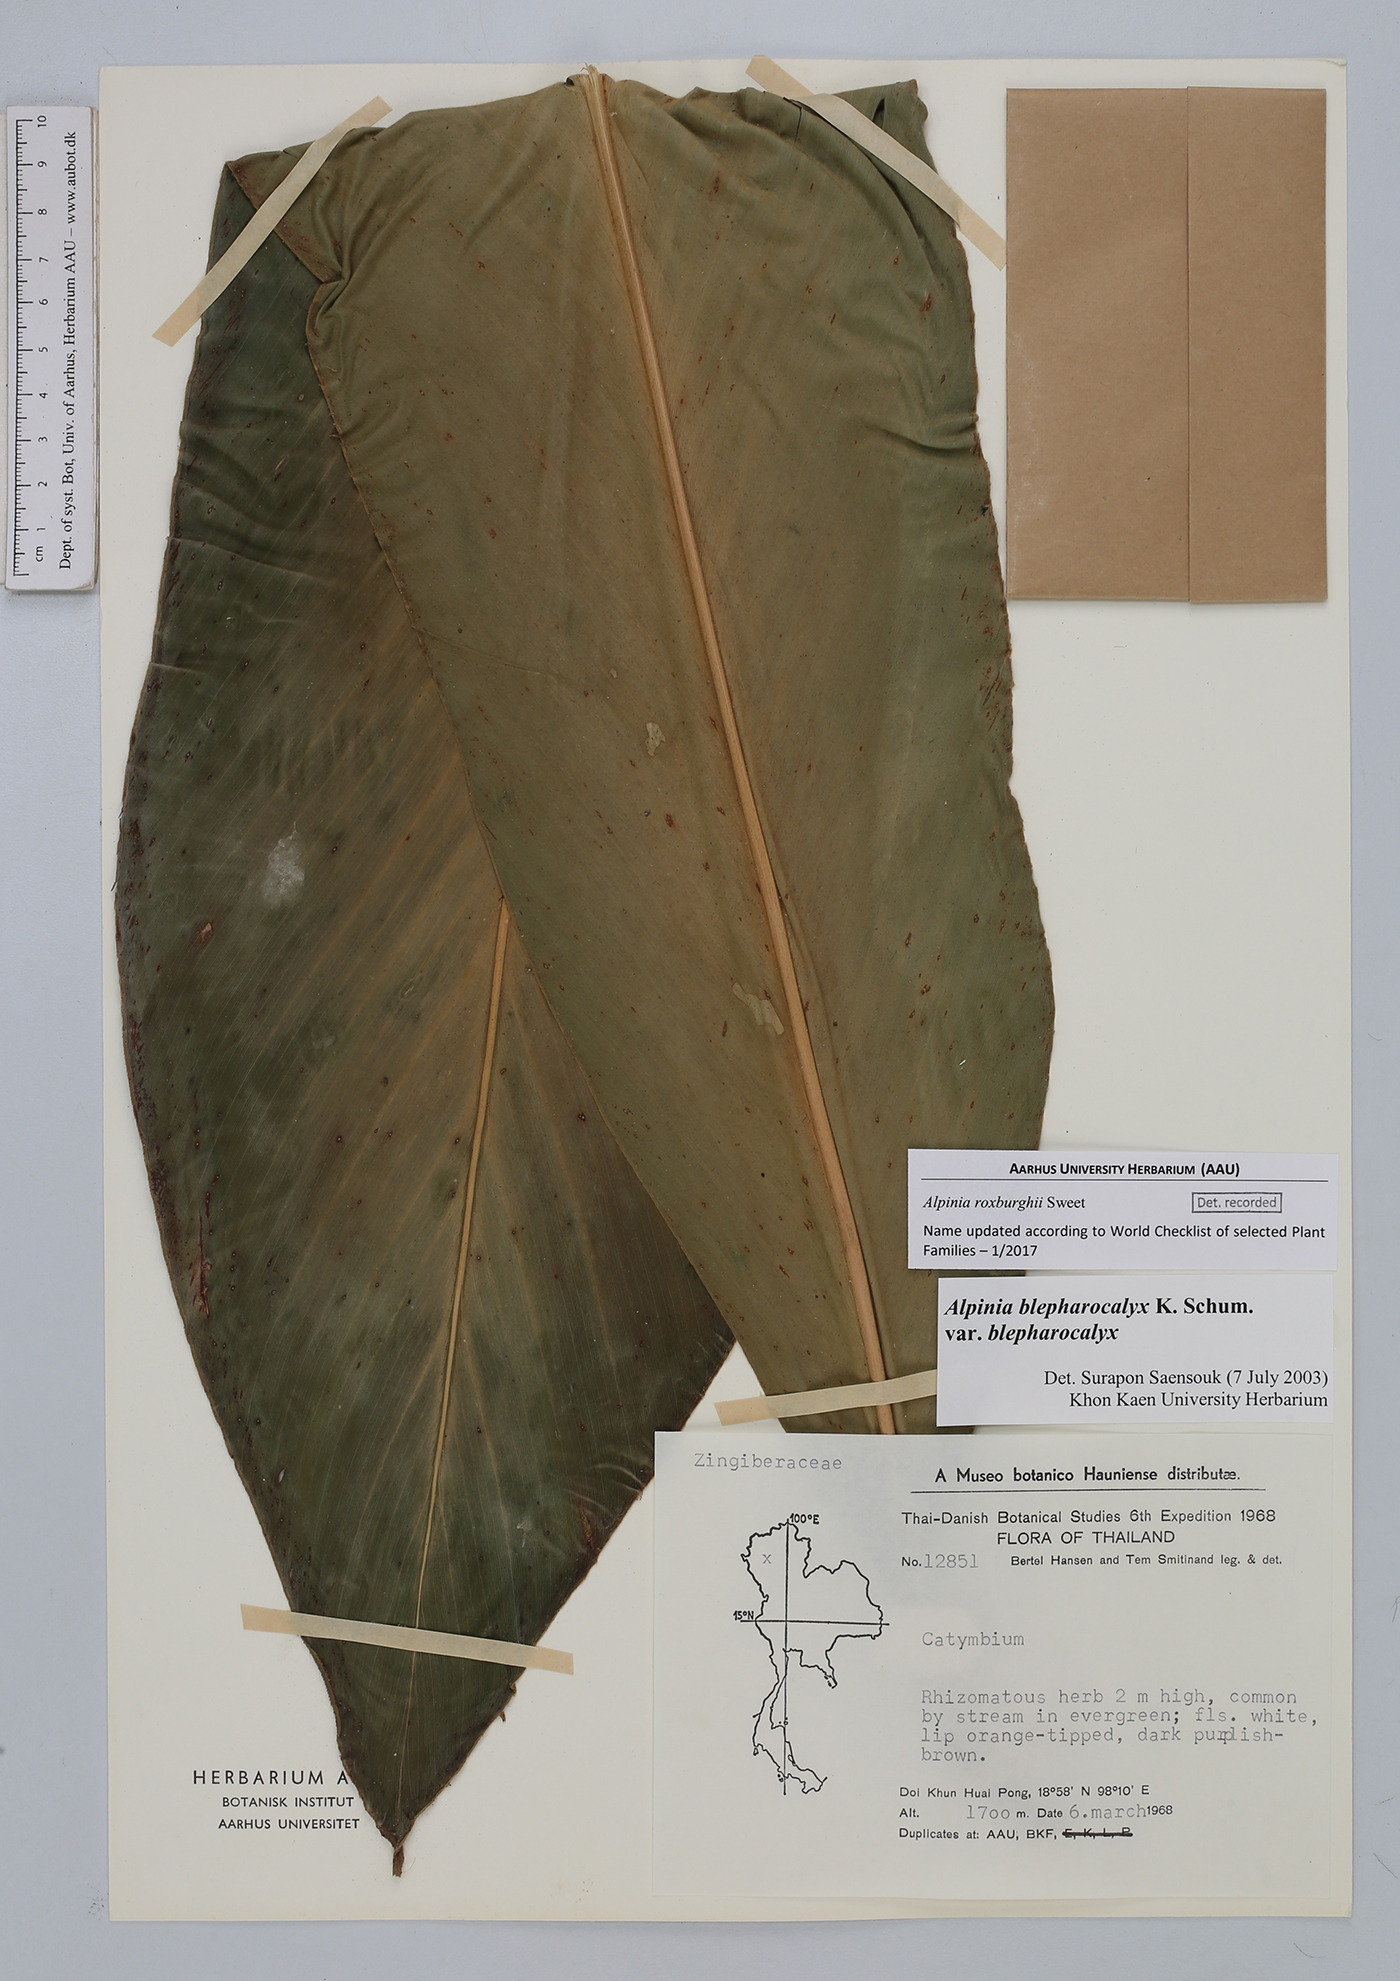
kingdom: Plantae
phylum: Tracheophyta
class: Liliopsida
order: Zingiberales
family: Zingiberaceae
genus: Alpinia
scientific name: Alpinia roxburghii
